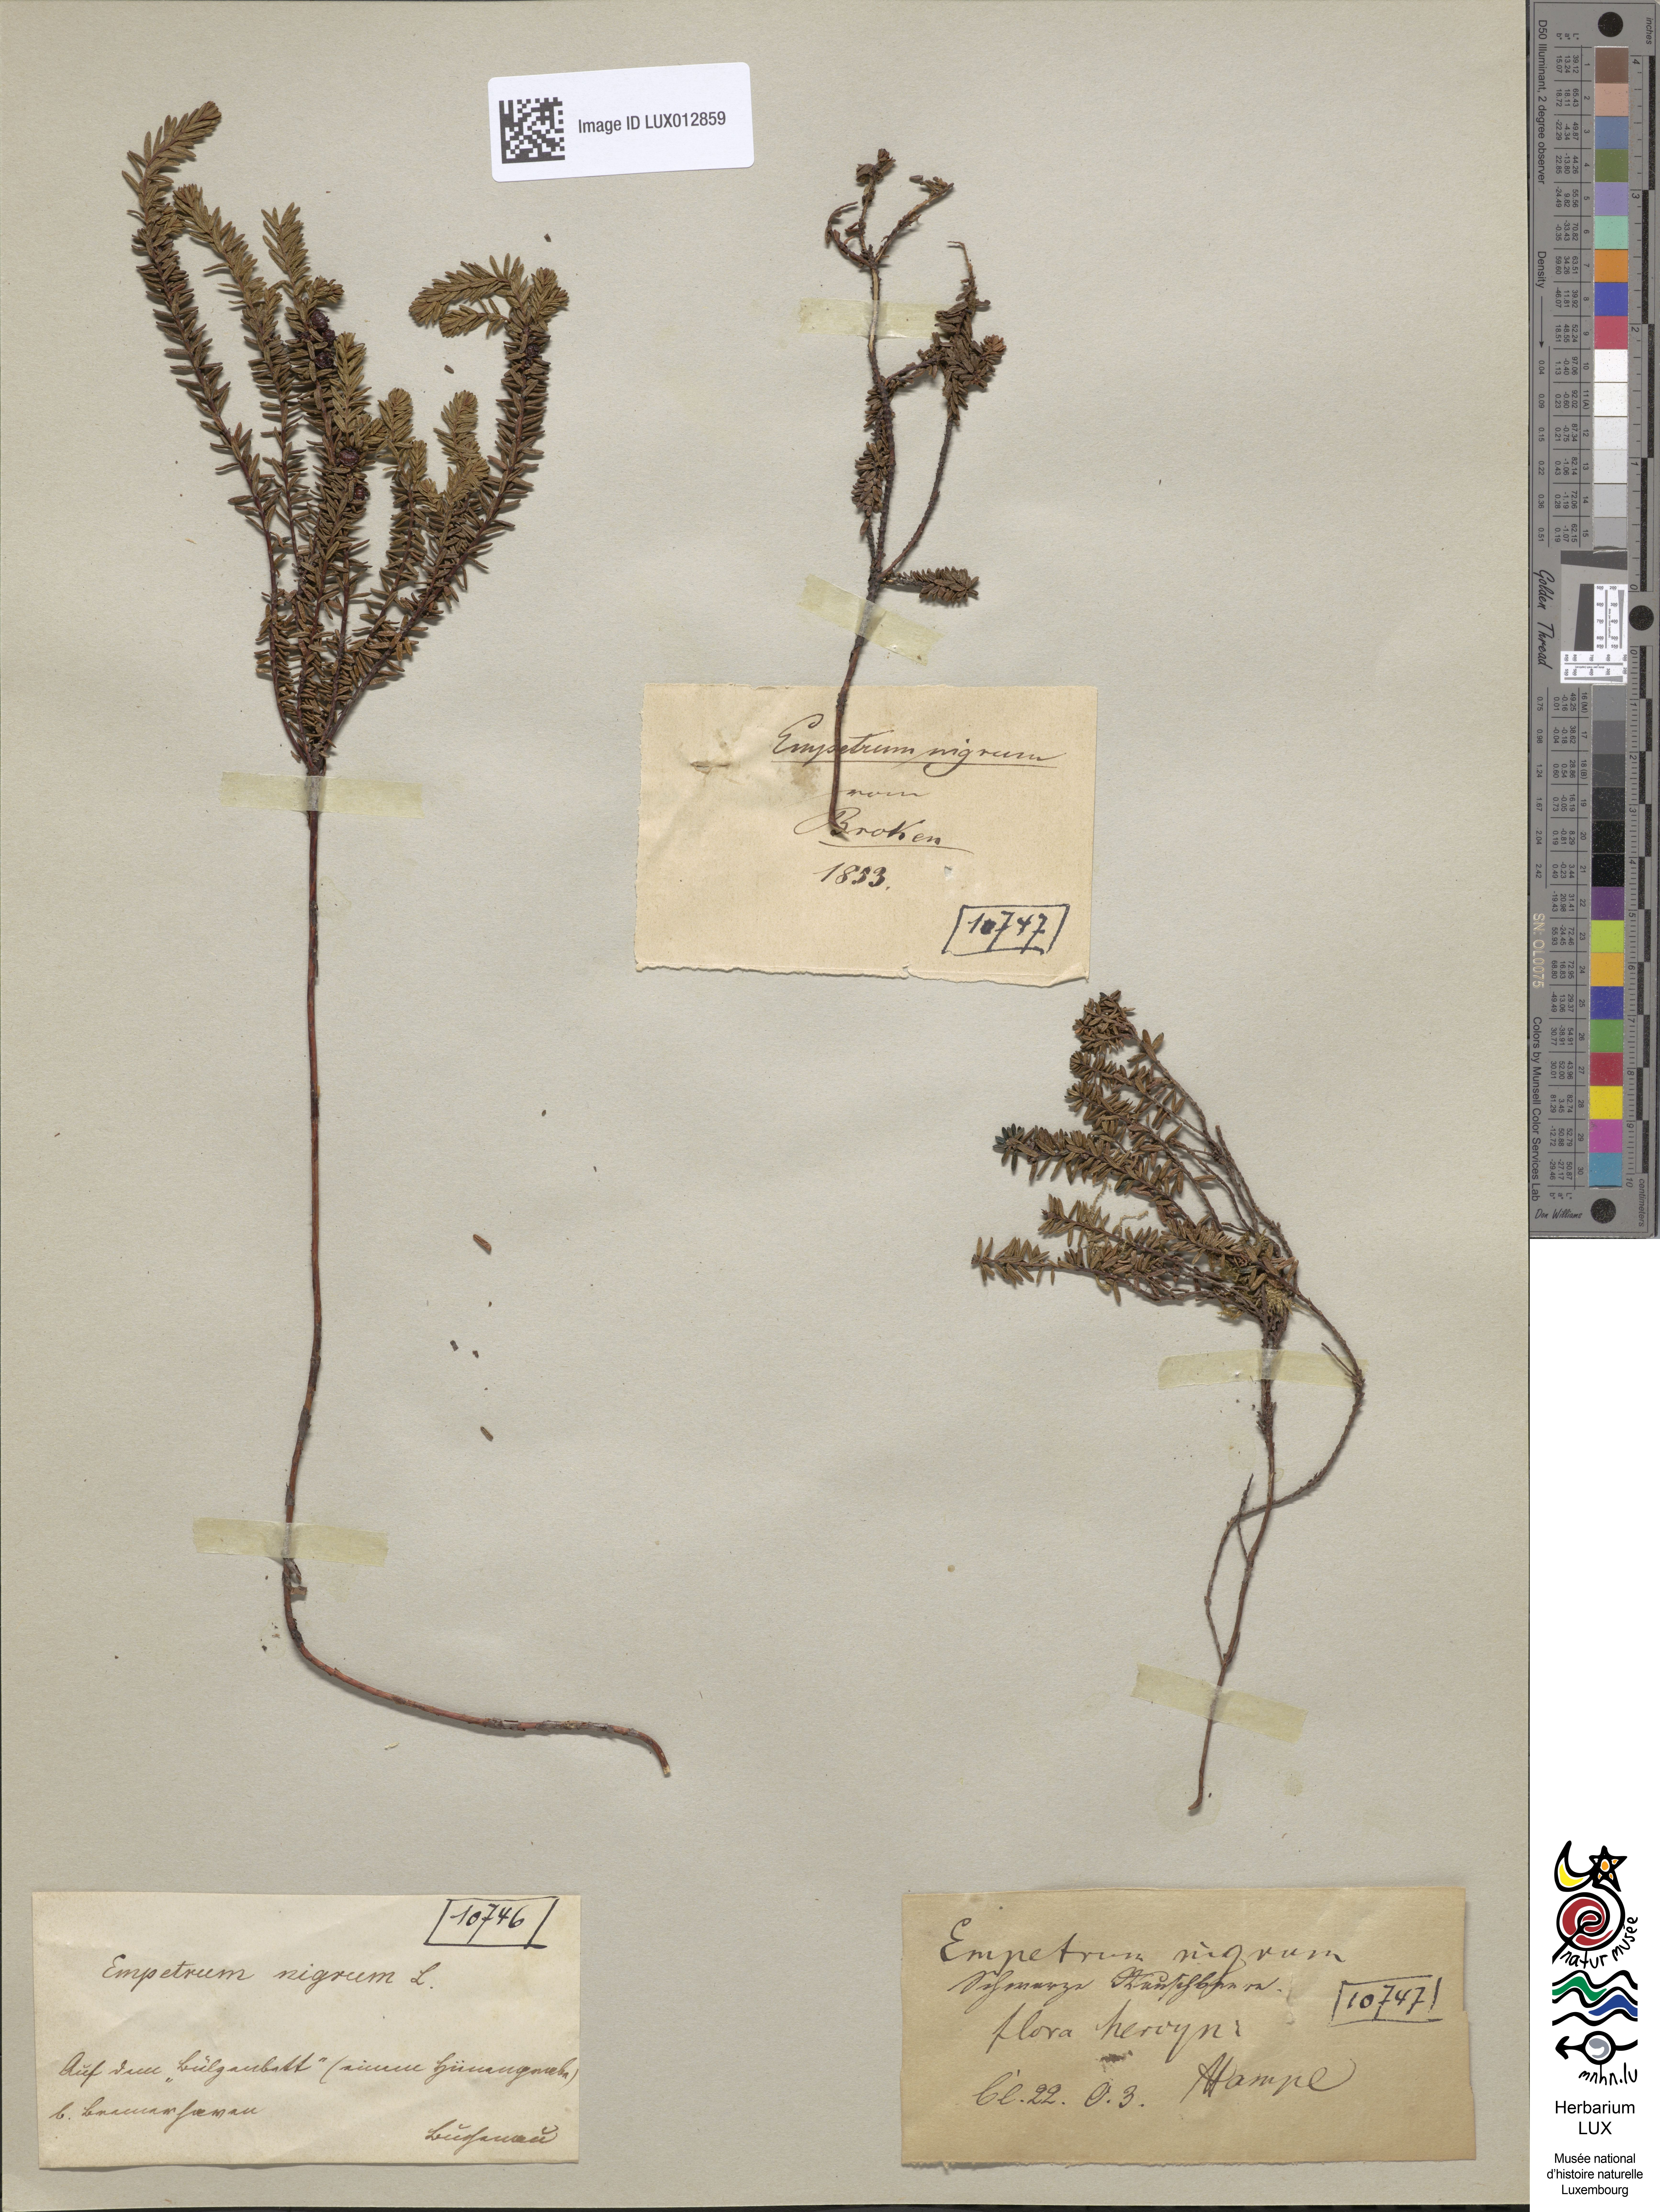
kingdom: Plantae
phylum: Tracheophyta
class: Magnoliopsida
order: Ericales
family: Ericaceae
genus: Empetrum
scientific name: Empetrum nigrum
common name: Black crowberry
